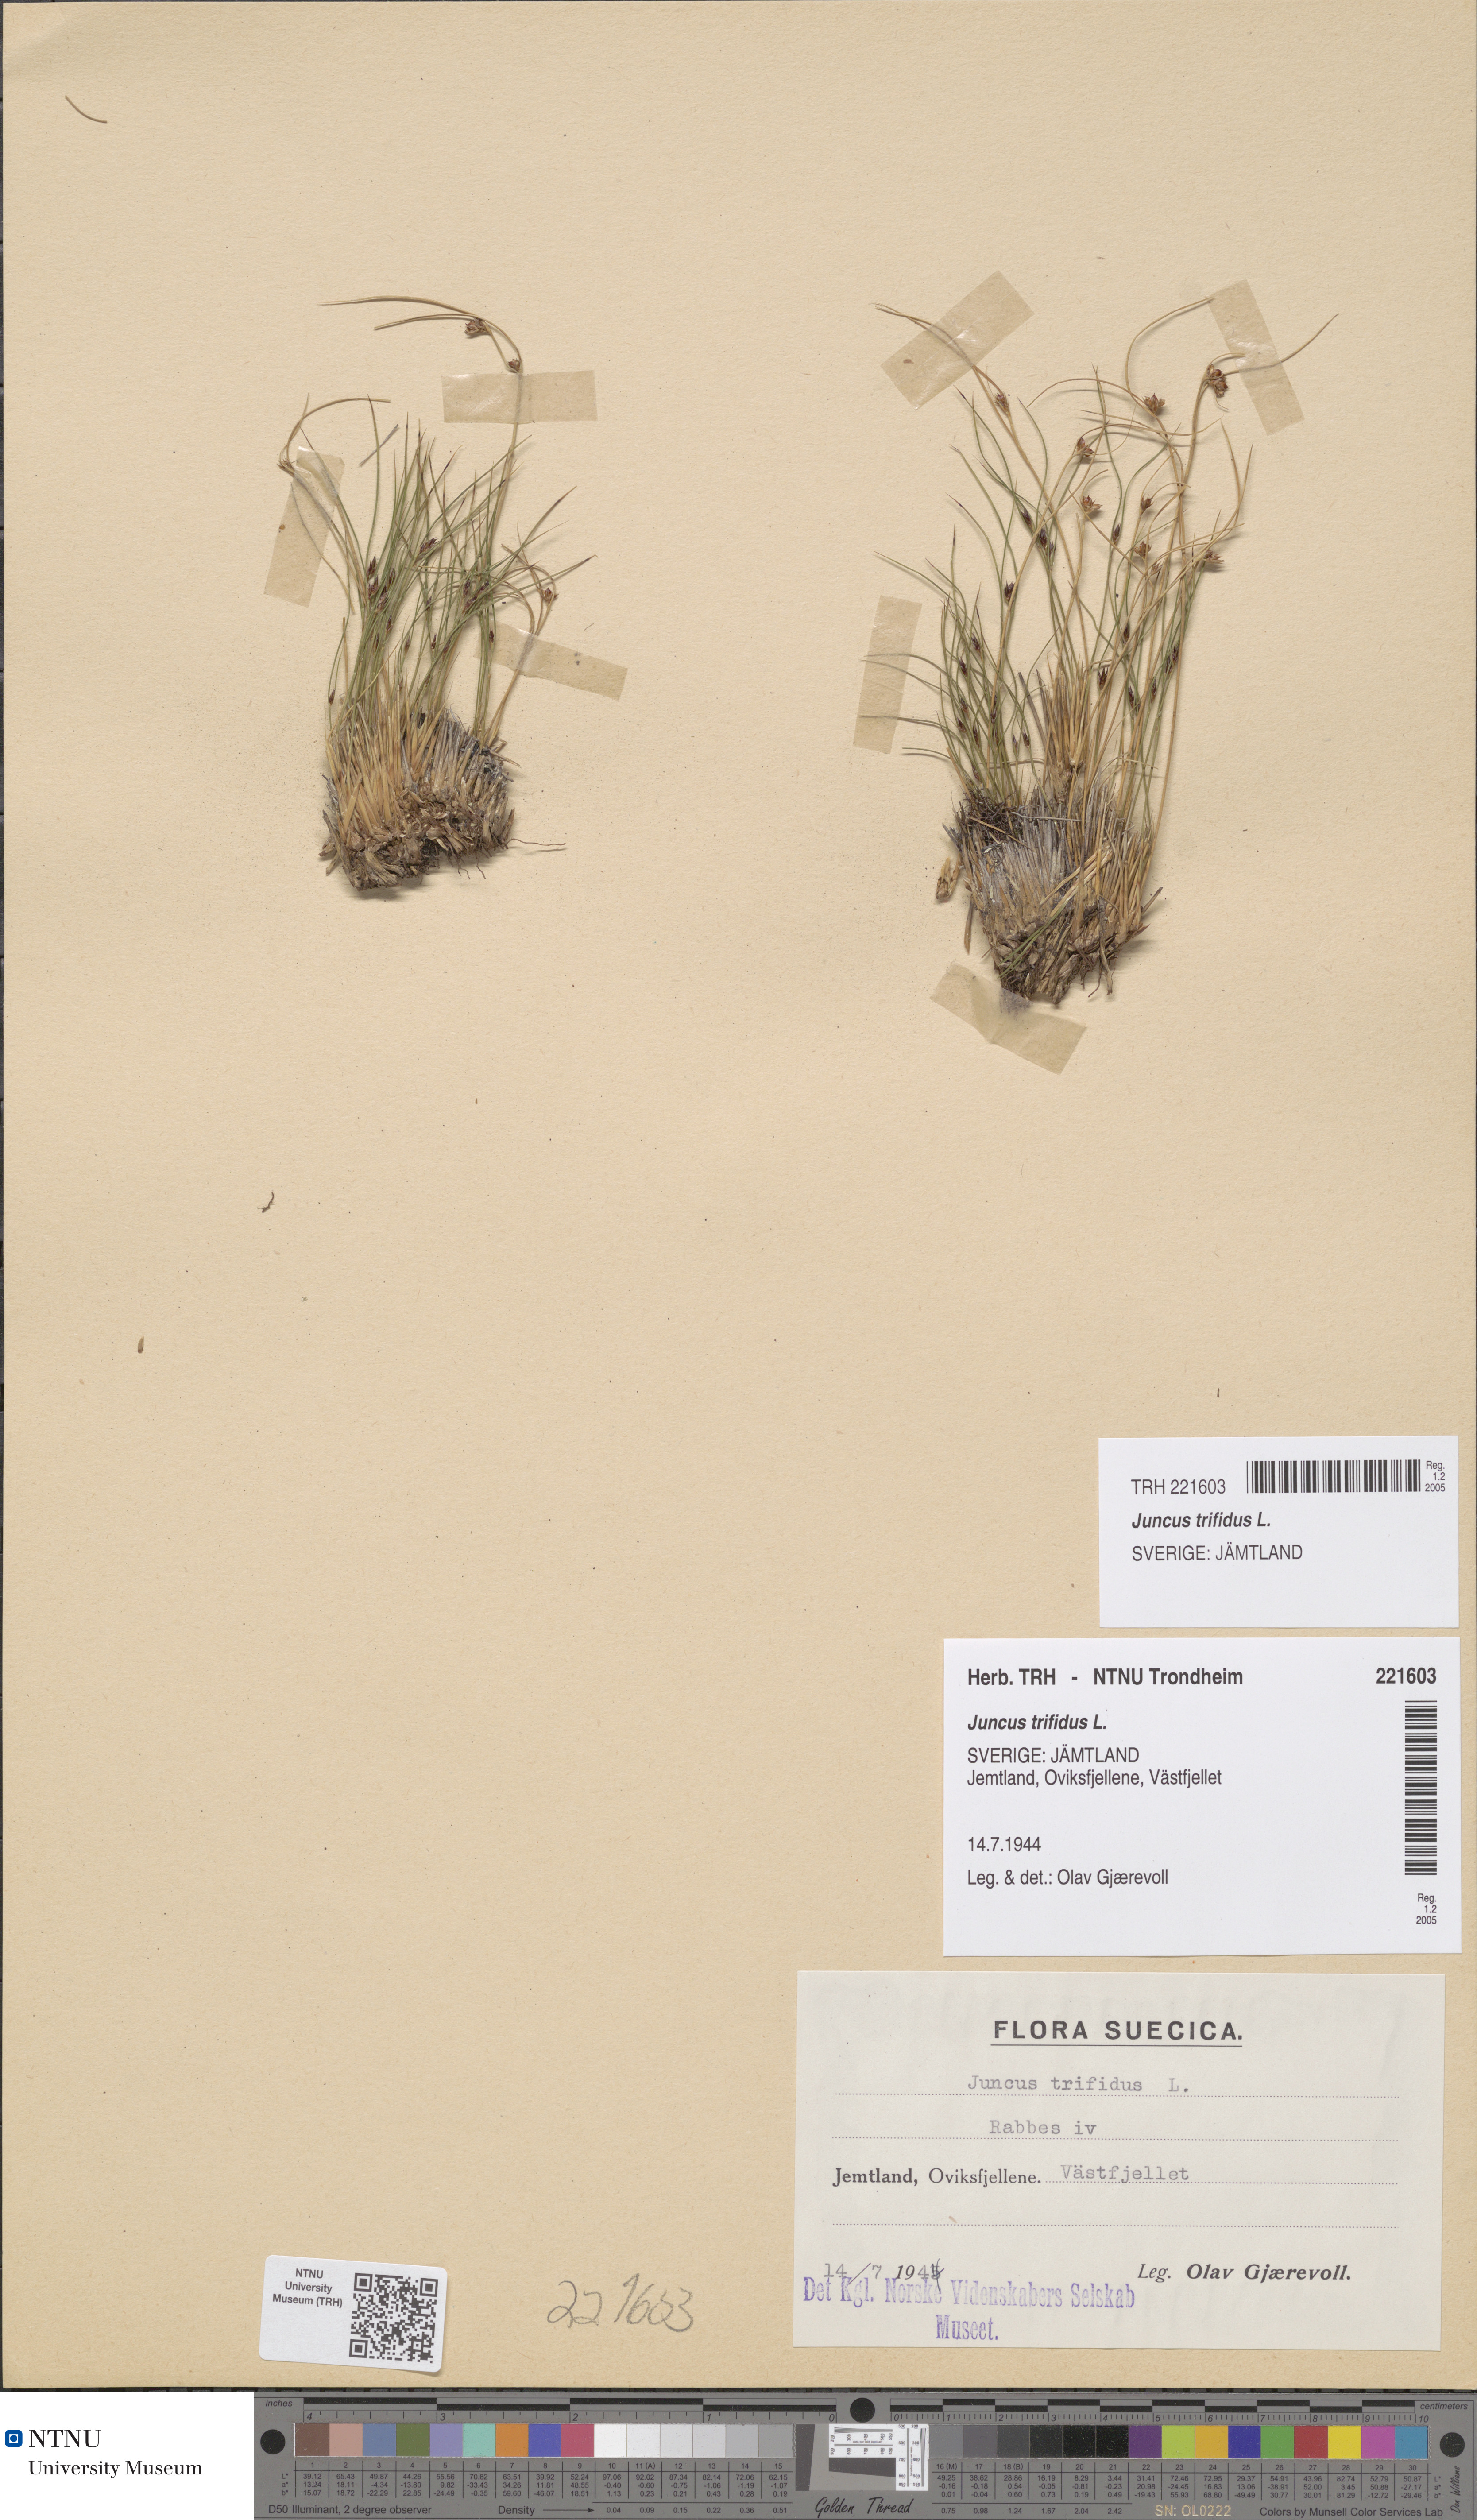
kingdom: Plantae
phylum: Tracheophyta
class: Liliopsida
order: Poales
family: Juncaceae
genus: Oreojuncus
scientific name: Oreojuncus trifidus
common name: Highland rush
